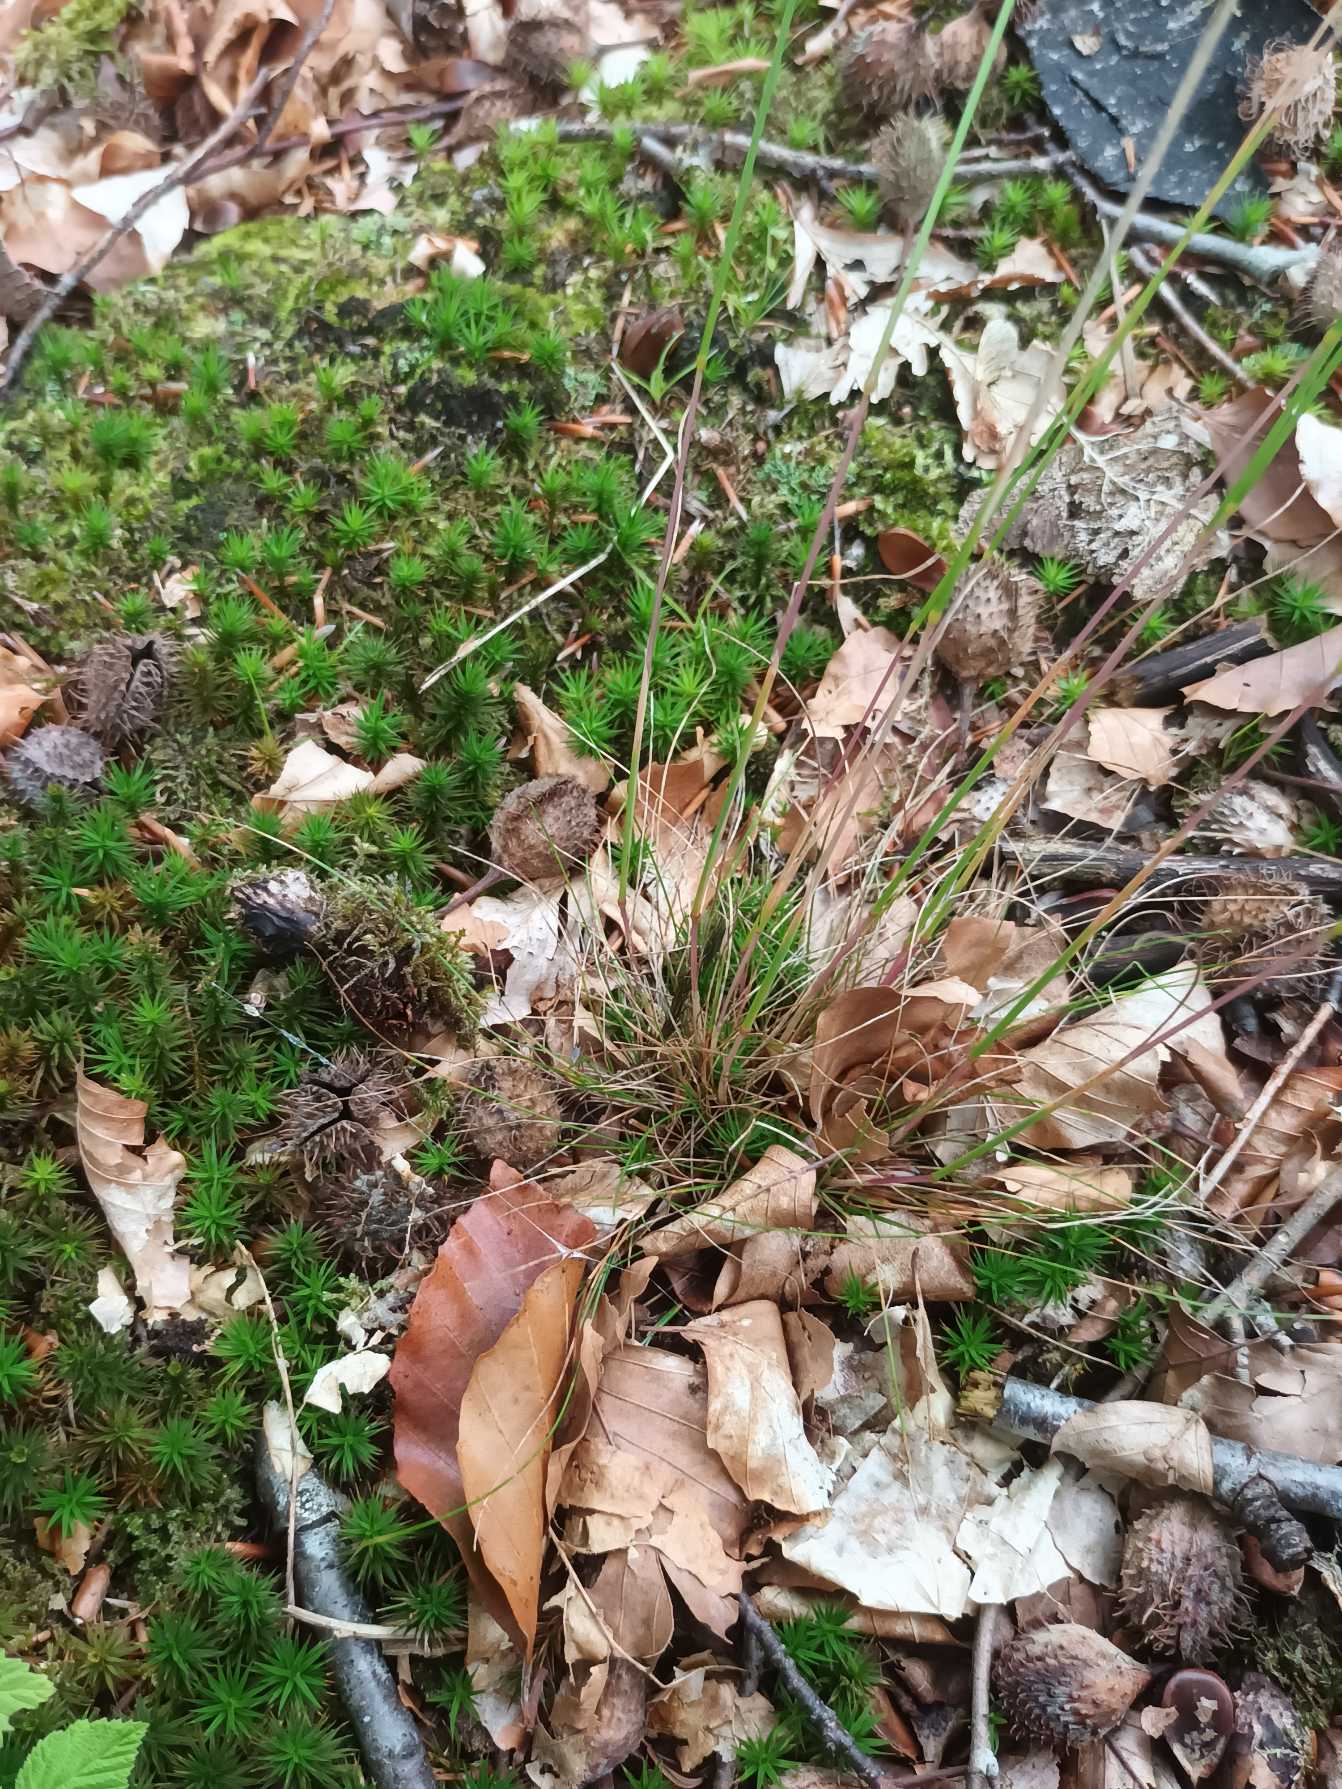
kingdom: Plantae
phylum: Tracheophyta
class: Liliopsida
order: Poales
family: Poaceae
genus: Avenella
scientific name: Avenella flexuosa
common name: Bølget bunke
